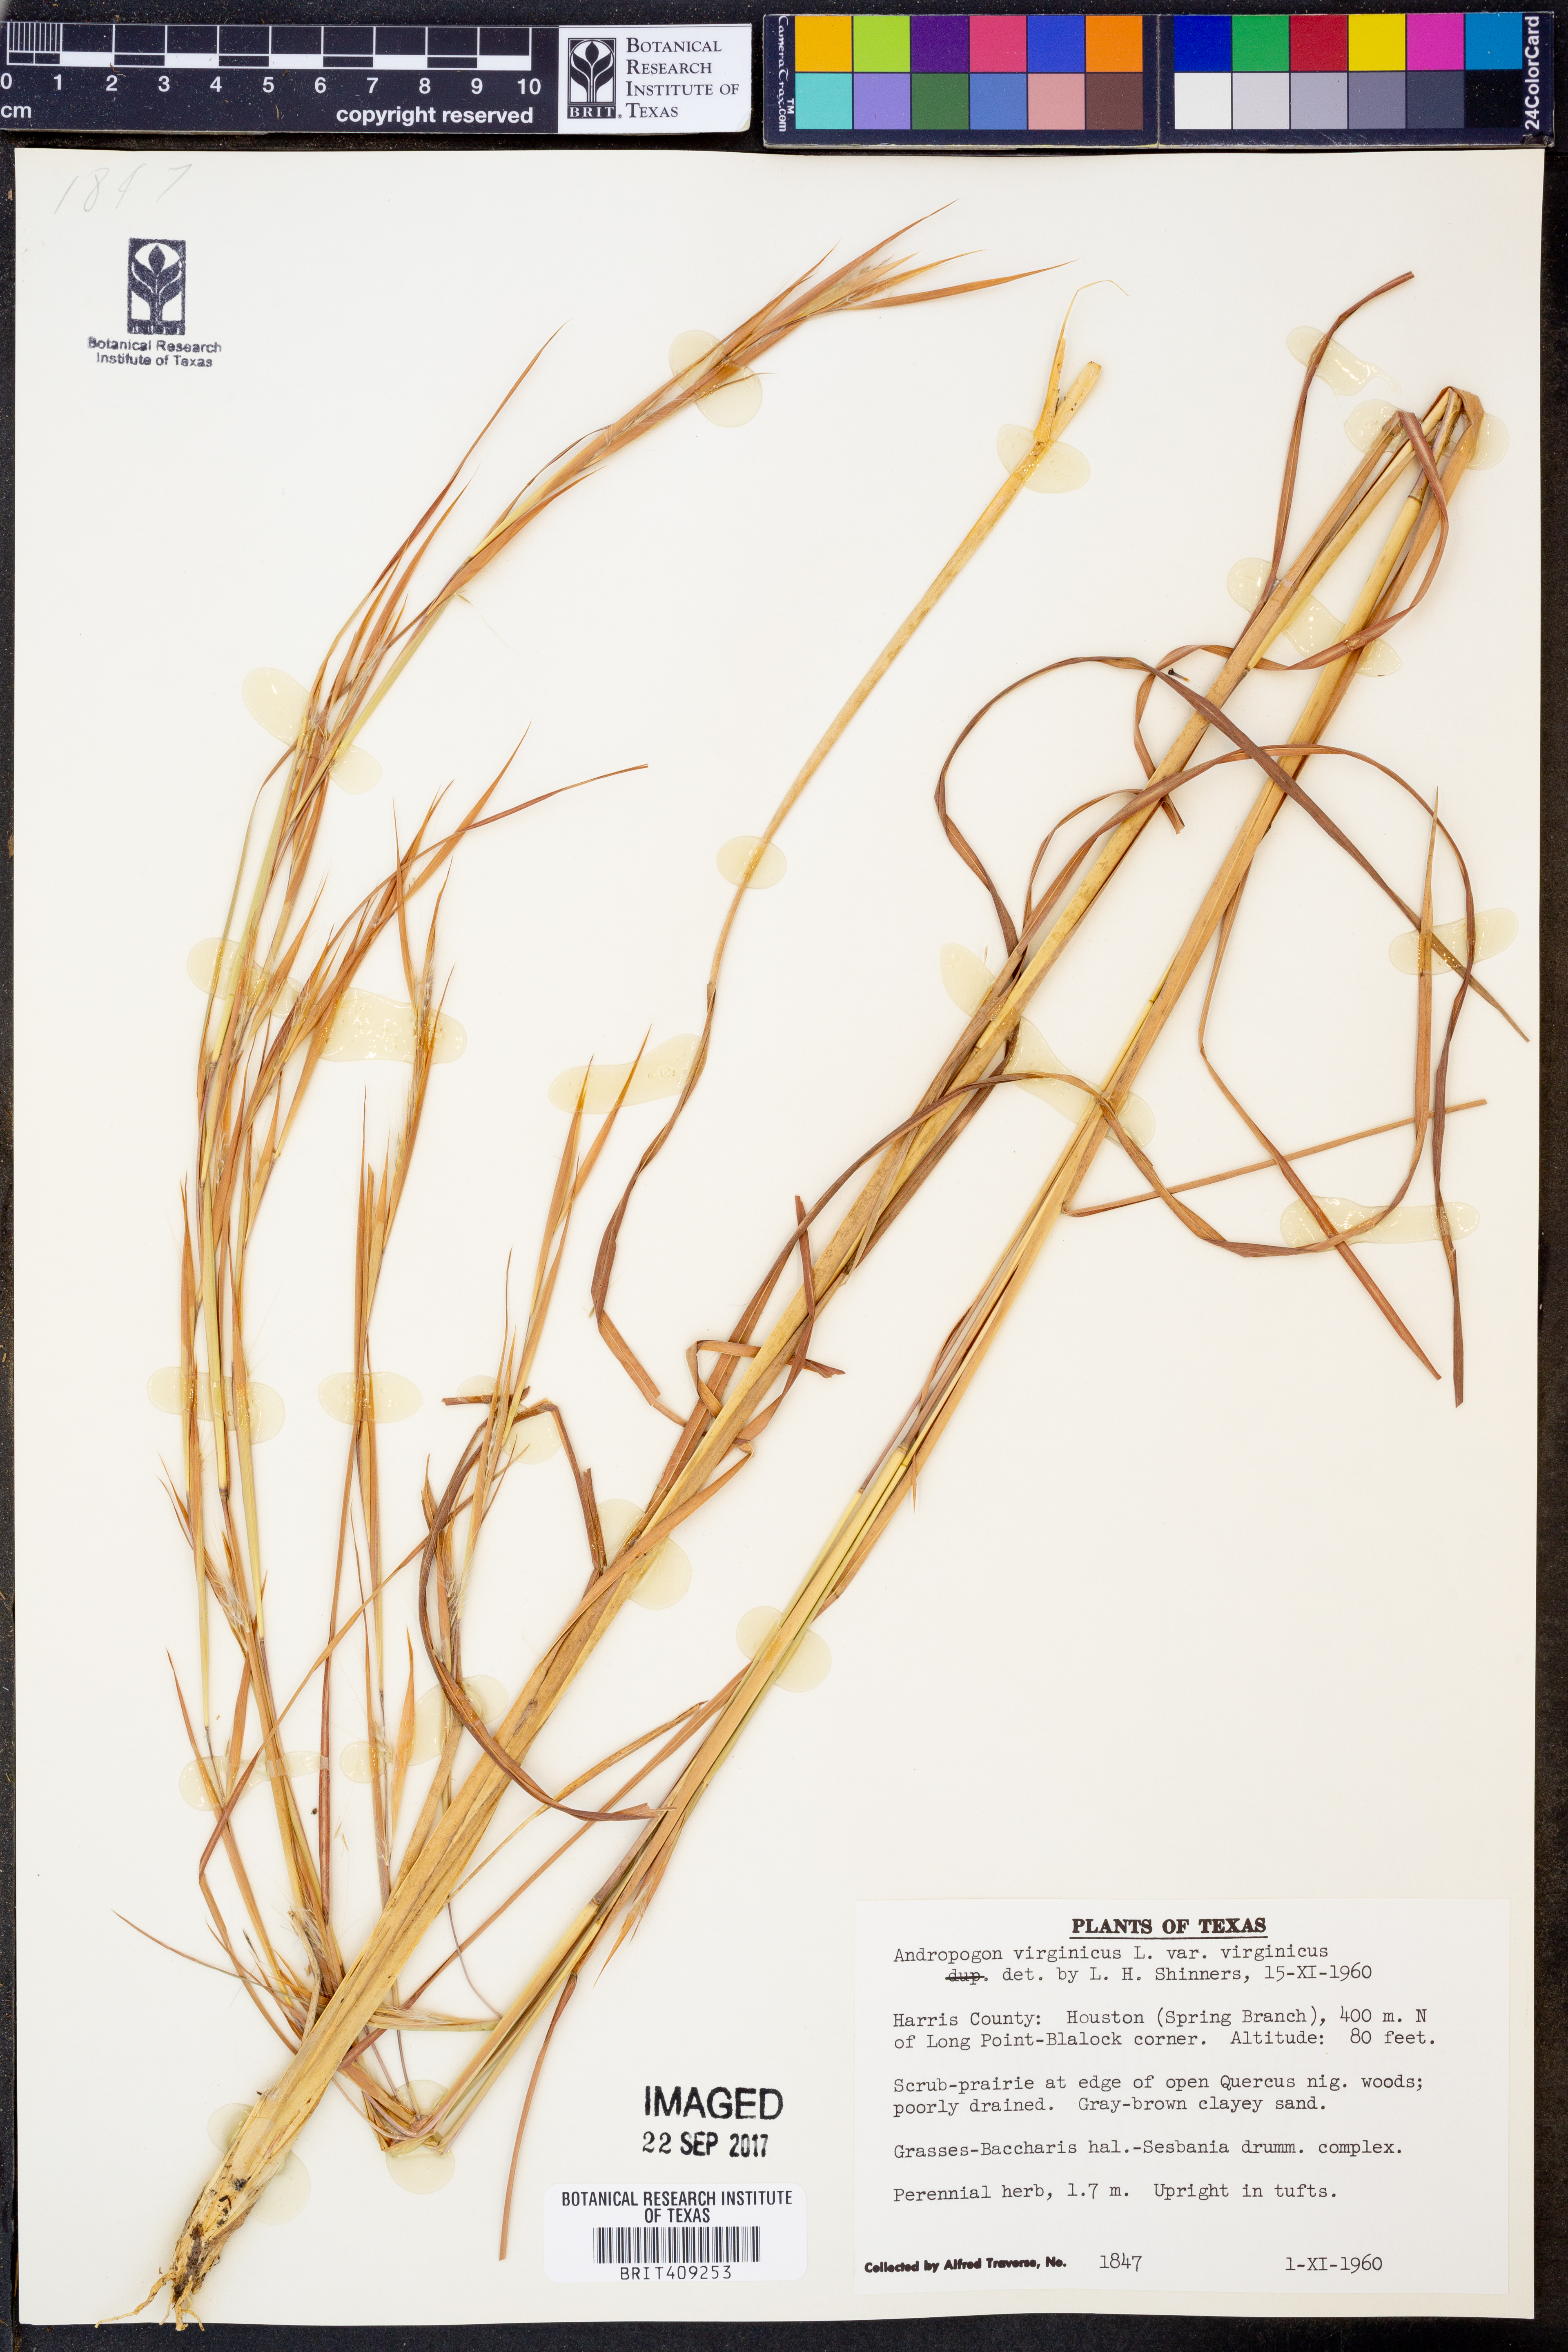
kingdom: Plantae
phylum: Tracheophyta
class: Liliopsida
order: Poales
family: Poaceae
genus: Andropogon
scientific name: Andropogon virginicus
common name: Broomsedge bluestem
